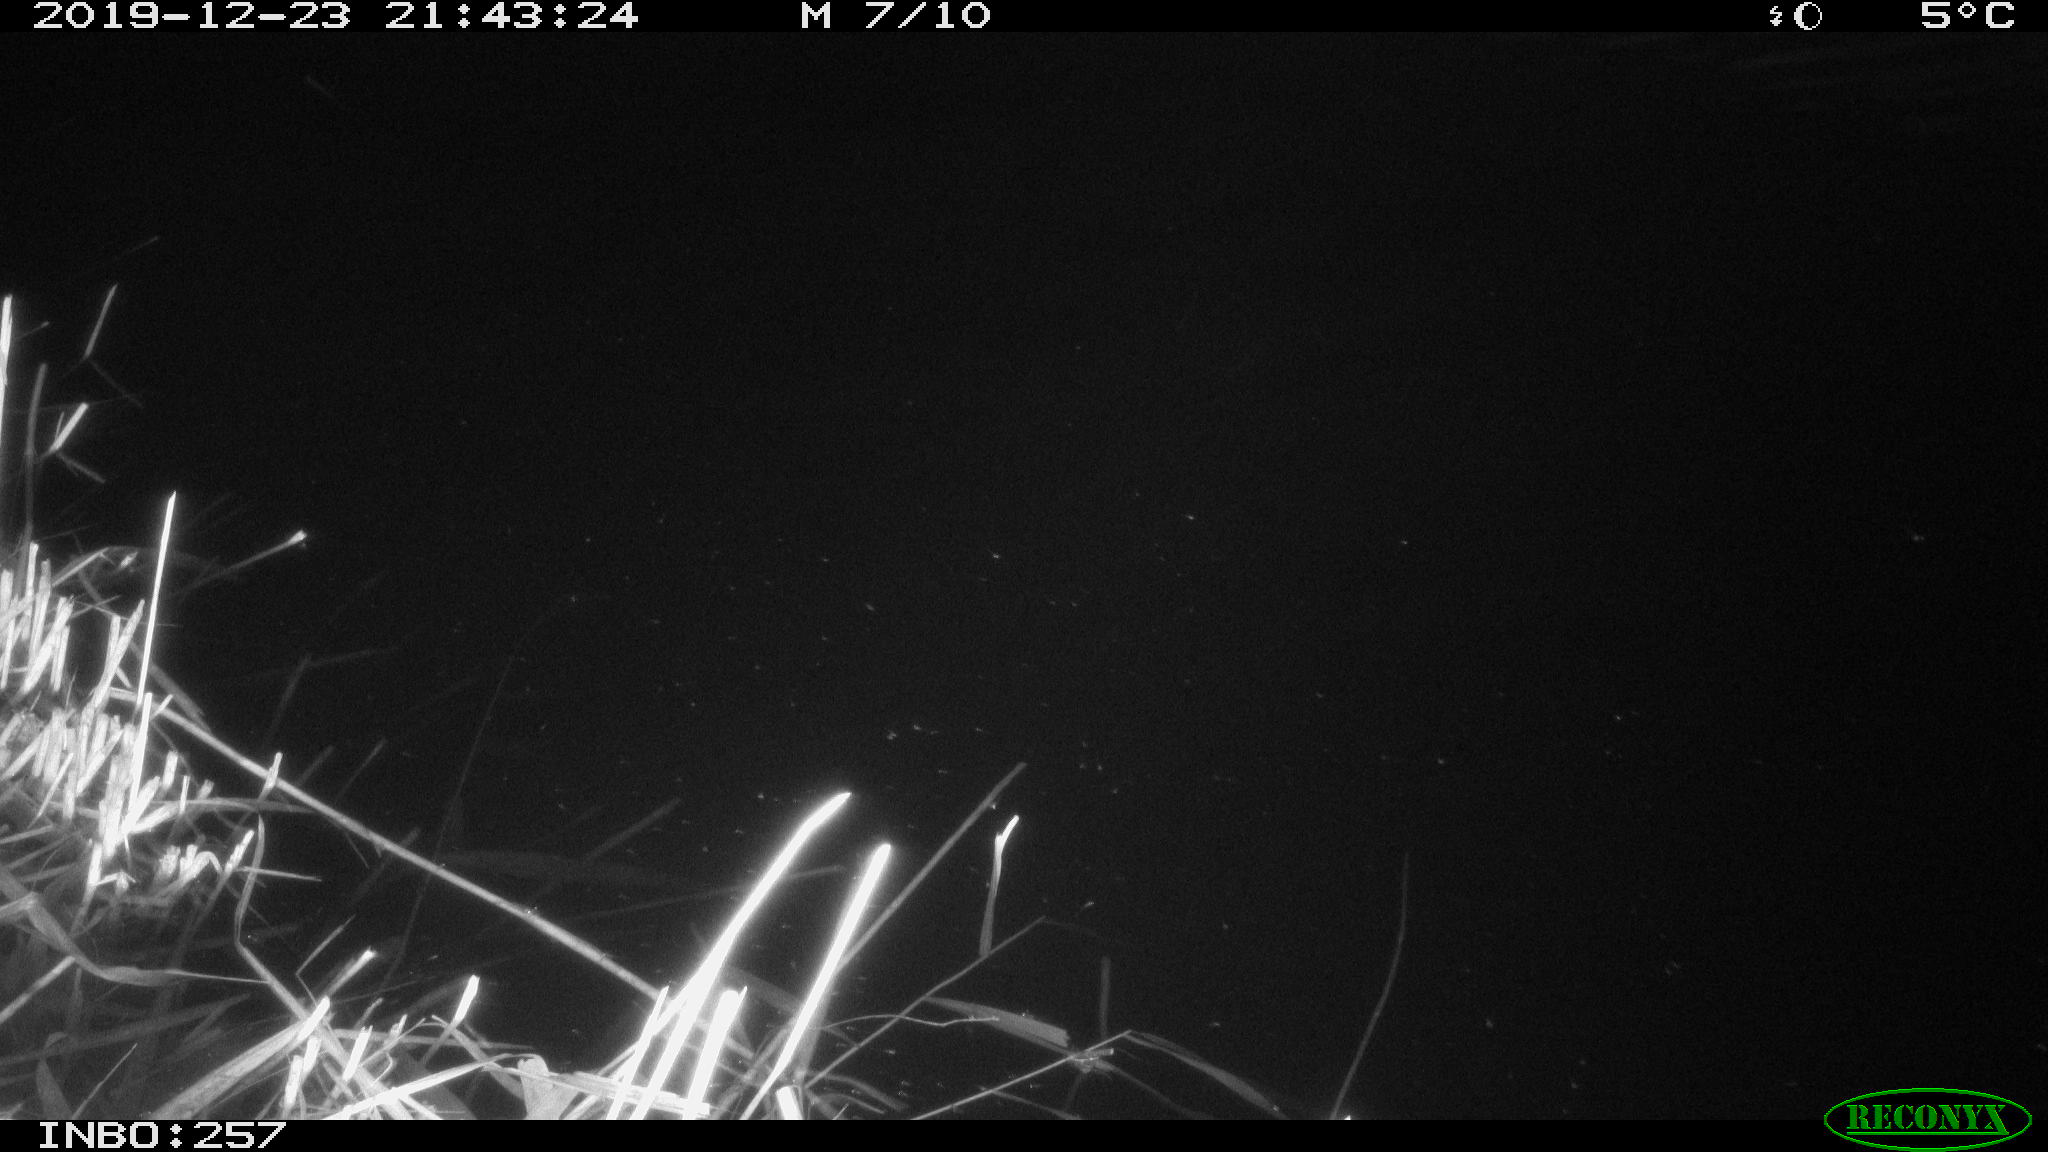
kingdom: Animalia
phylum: Chordata
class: Mammalia
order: Rodentia
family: Muridae
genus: Rattus
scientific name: Rattus norvegicus
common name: Brown rat
